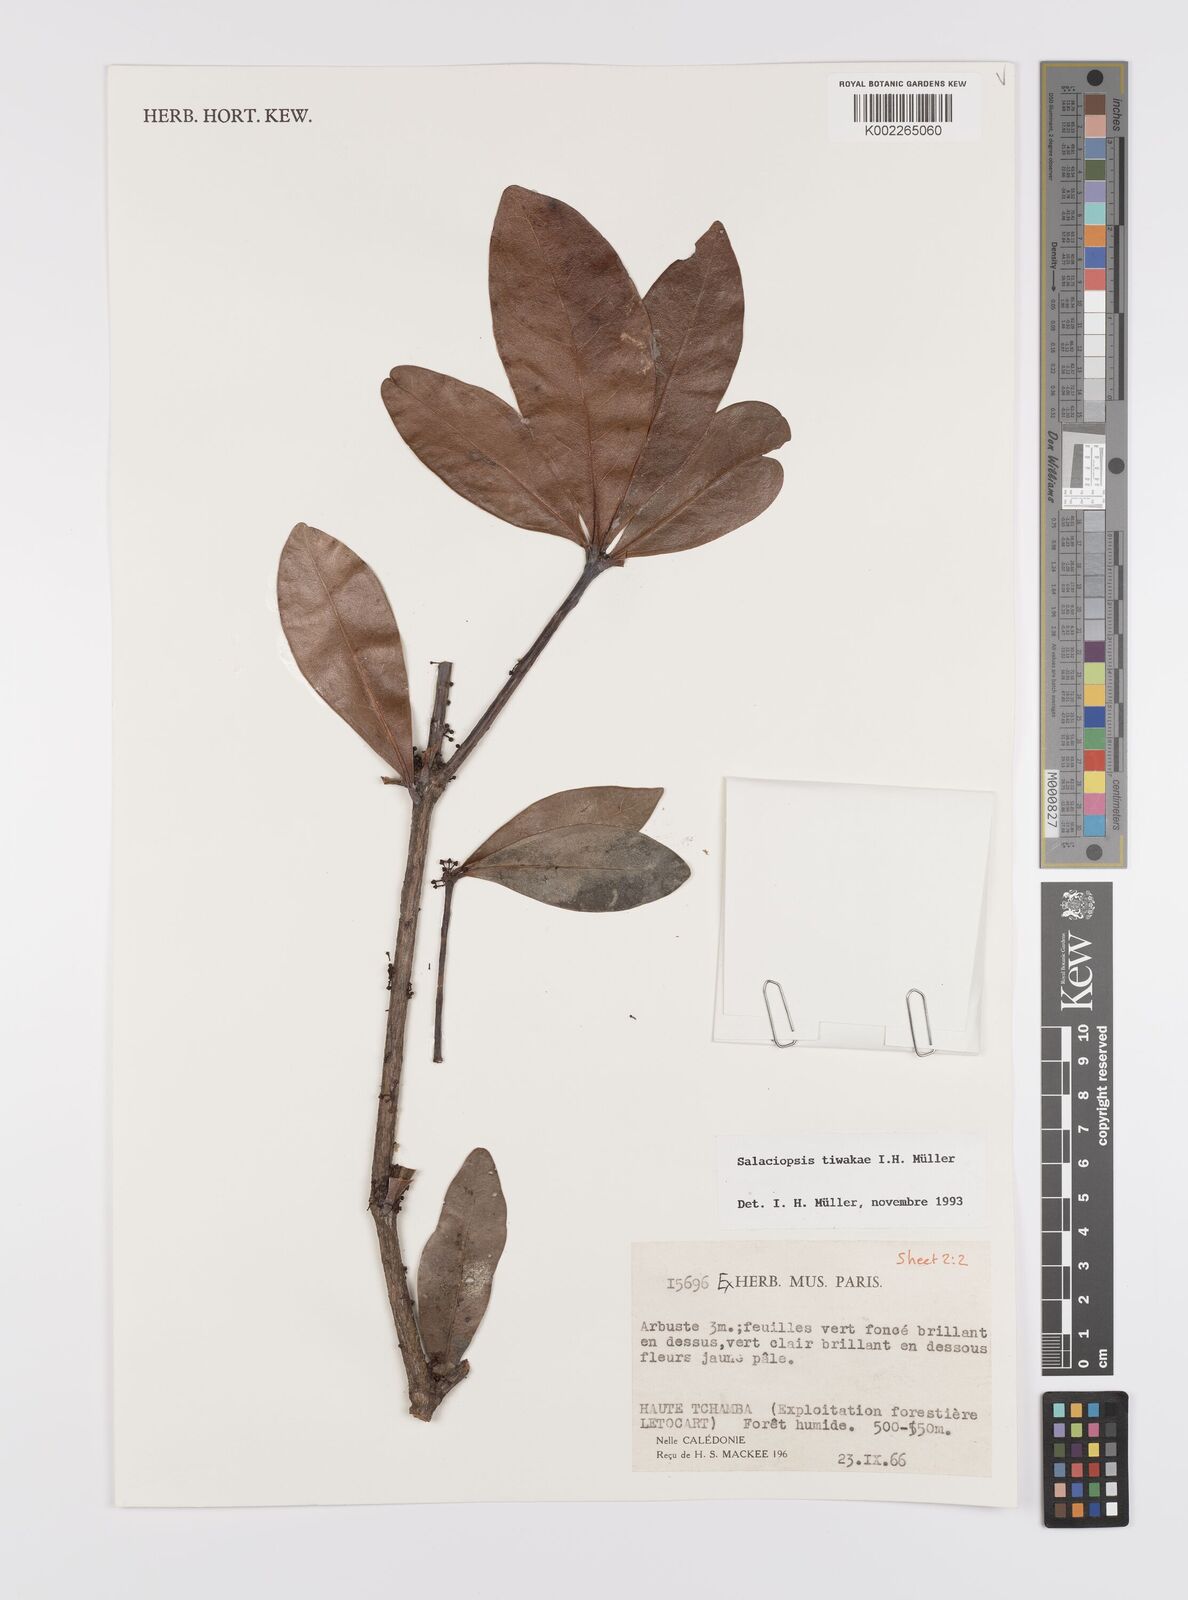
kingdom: Plantae
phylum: Tracheophyta
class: Magnoliopsida
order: Celastrales
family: Celastraceae
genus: Salaciopsis
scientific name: Salaciopsis tiwakae
